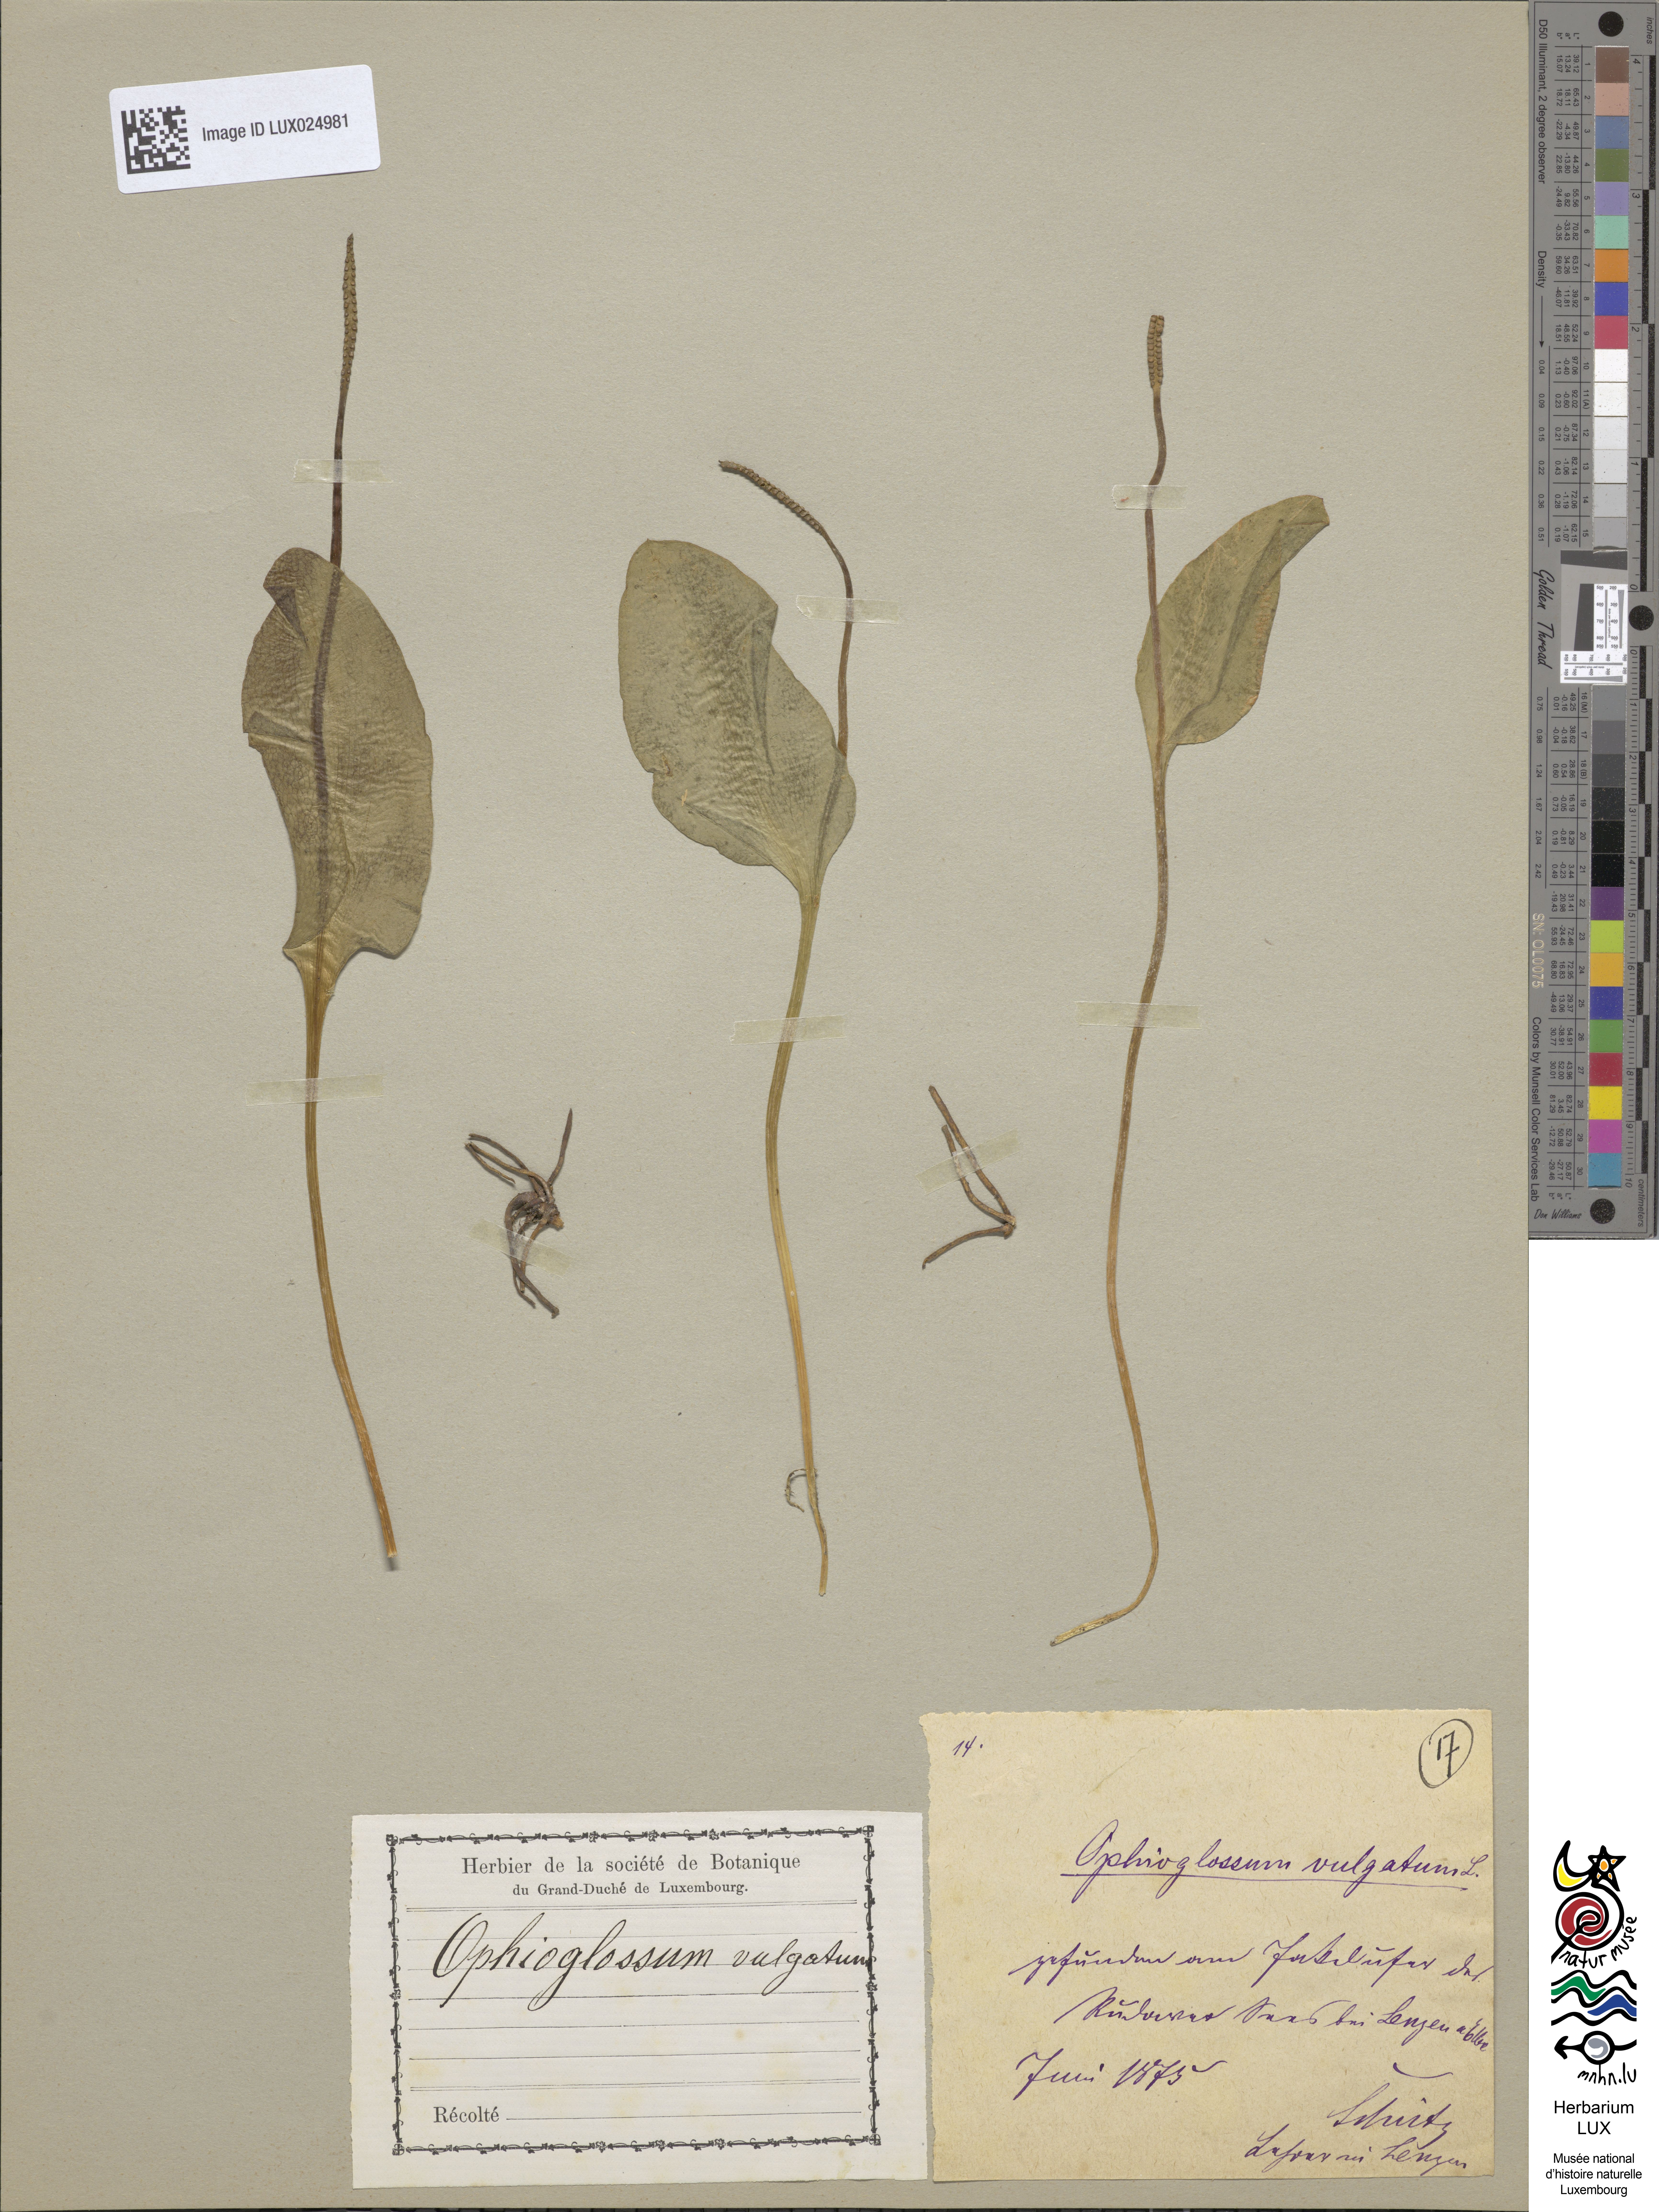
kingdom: Plantae
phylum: Tracheophyta
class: Polypodiopsida
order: Ophioglossales
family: Ophioglossaceae
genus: Ophioglossum
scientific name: Ophioglossum vulgatum
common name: Adder's-tongue
